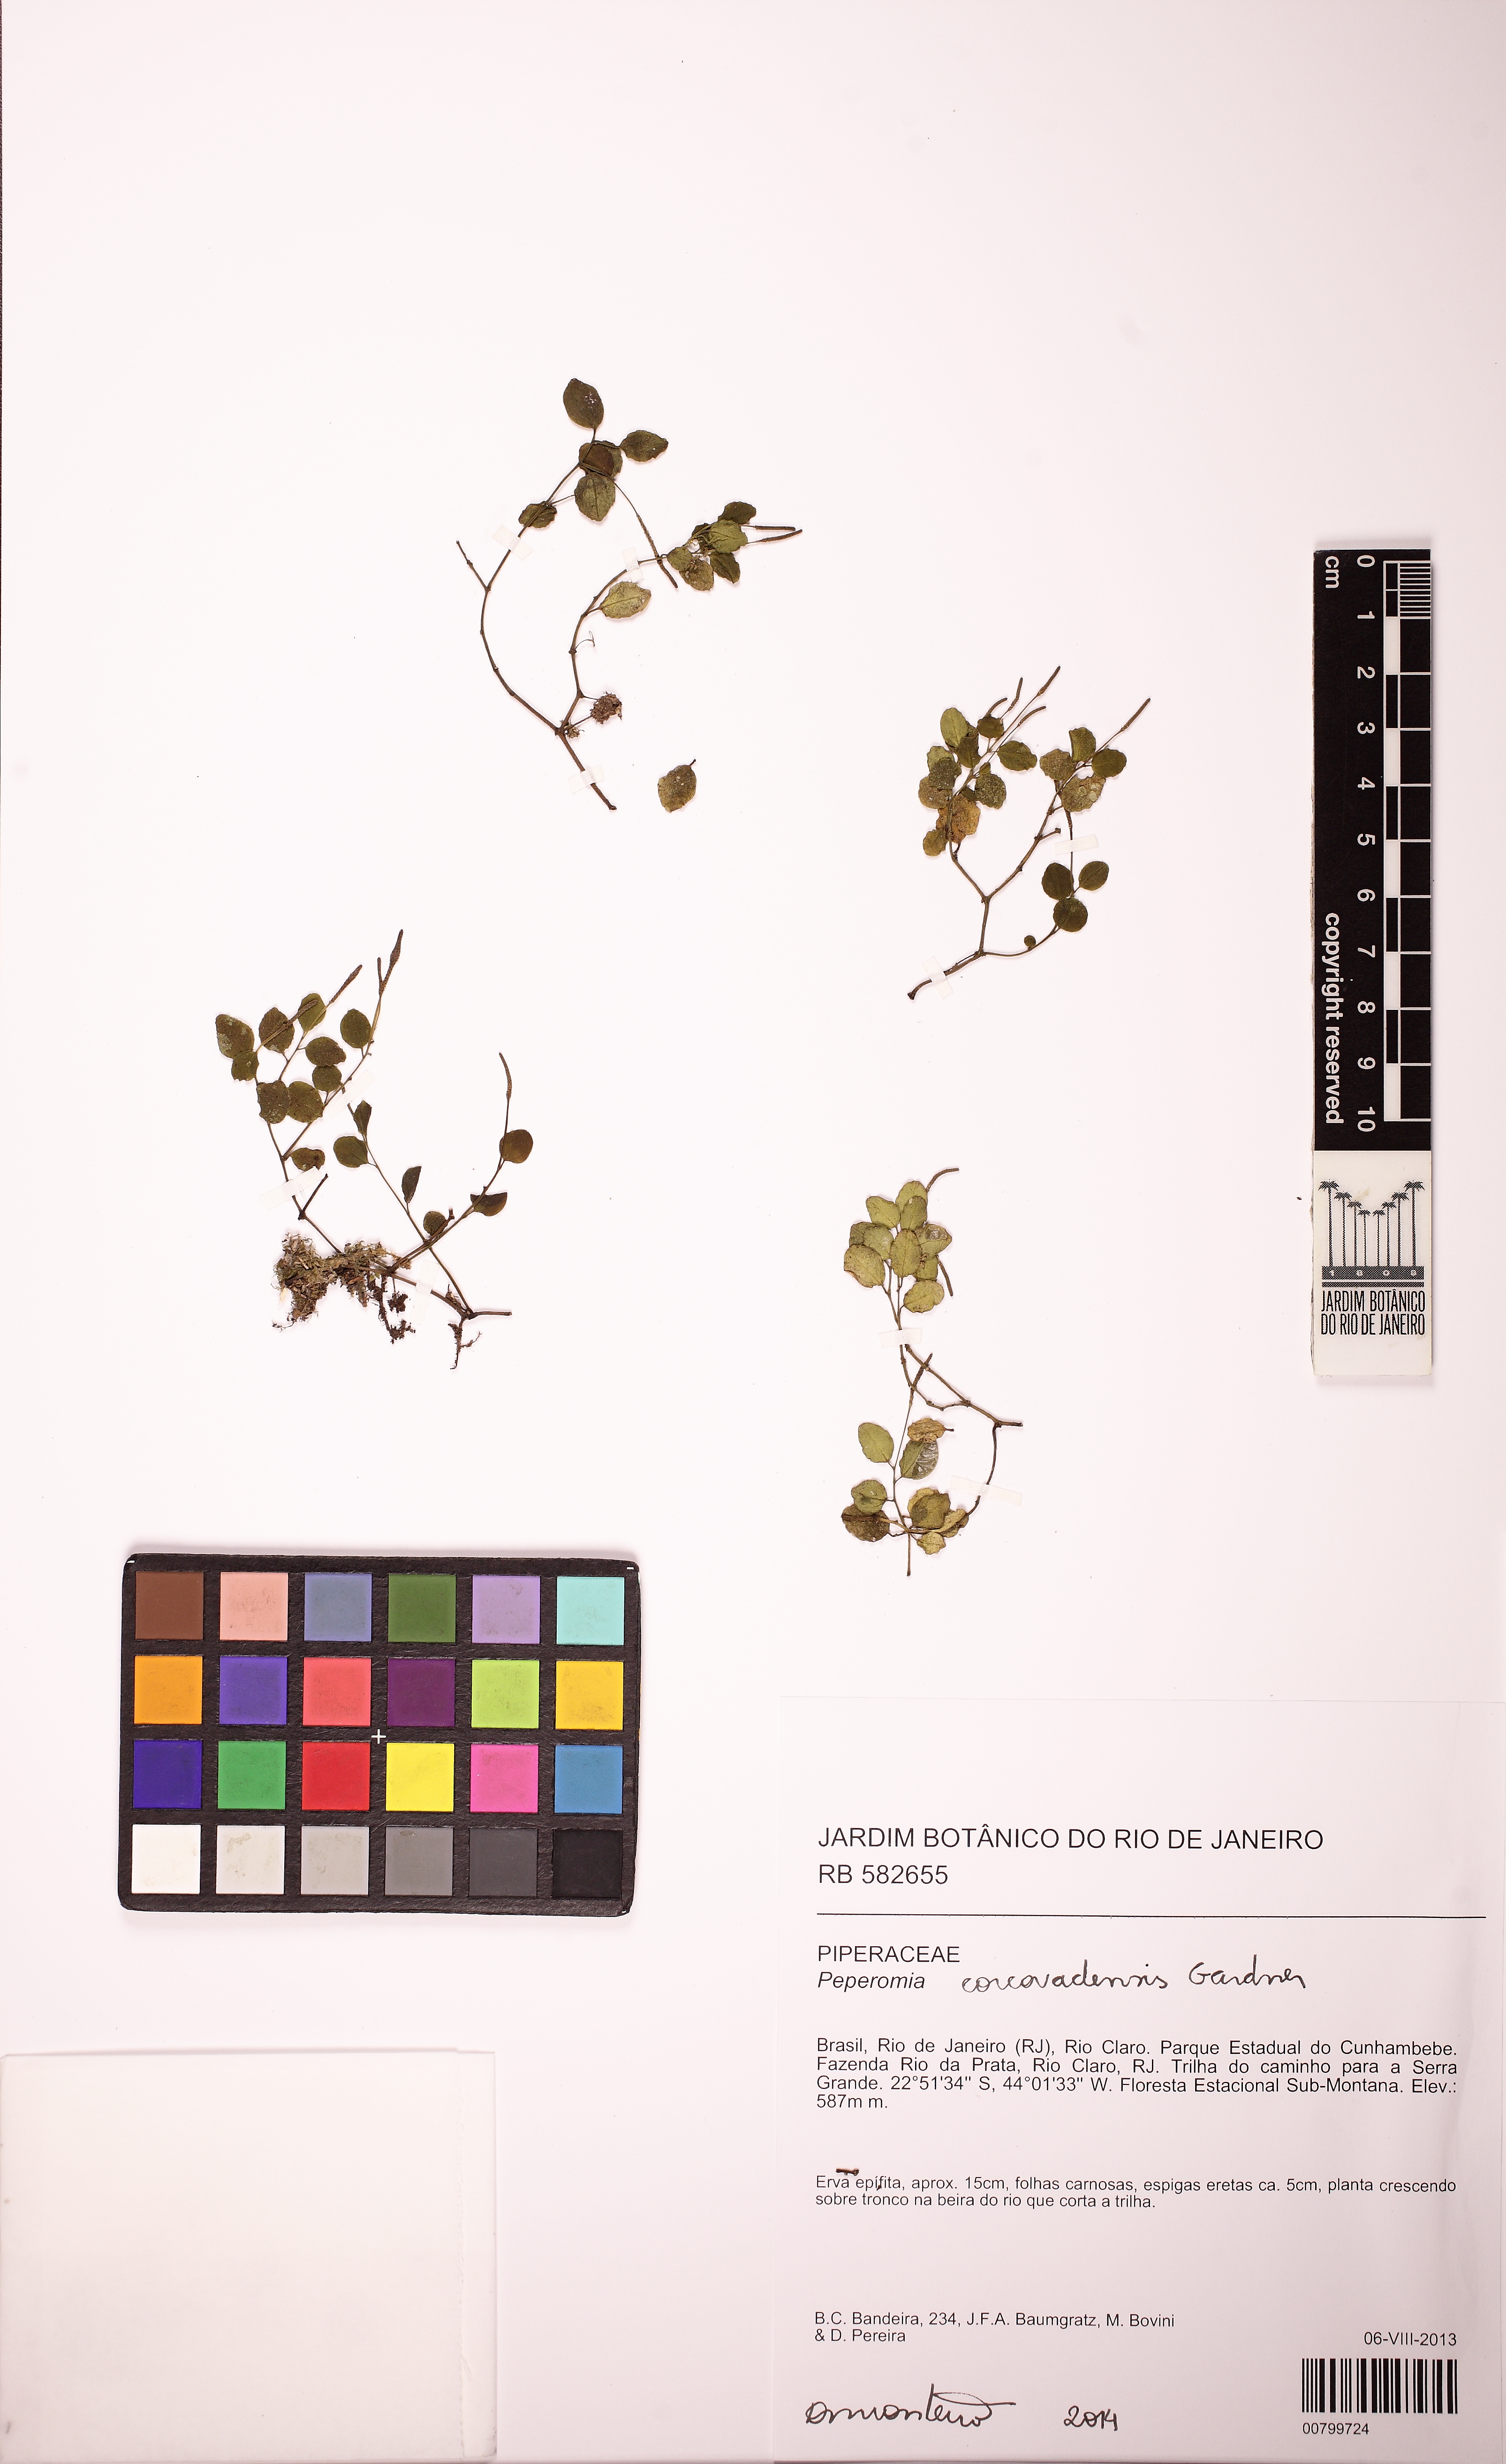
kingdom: Plantae
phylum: Tracheophyta
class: Magnoliopsida
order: Piperales
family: Piperaceae
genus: Peperomia
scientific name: Peperomia corcovadensis
